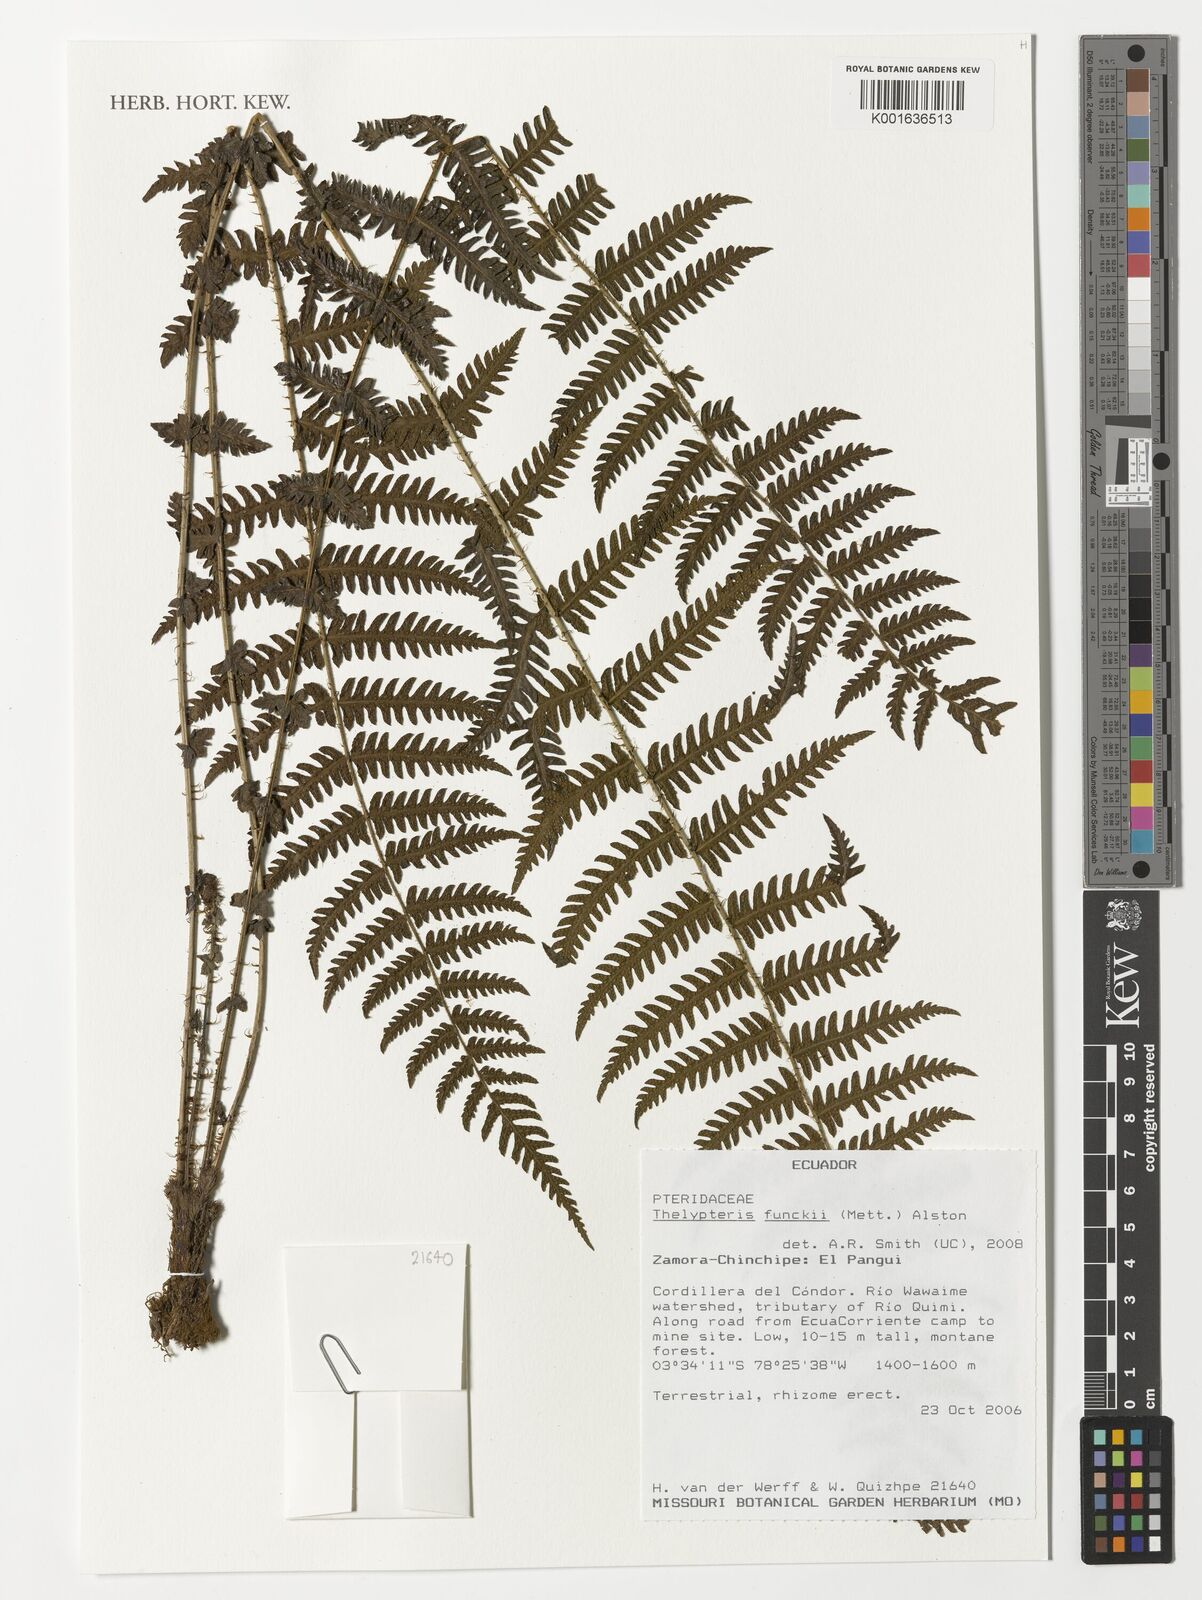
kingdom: Plantae
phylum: Tracheophyta
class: Polypodiopsida
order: Polypodiales
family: Thelypteridaceae
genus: Amauropelta
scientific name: Amauropelta funckii
